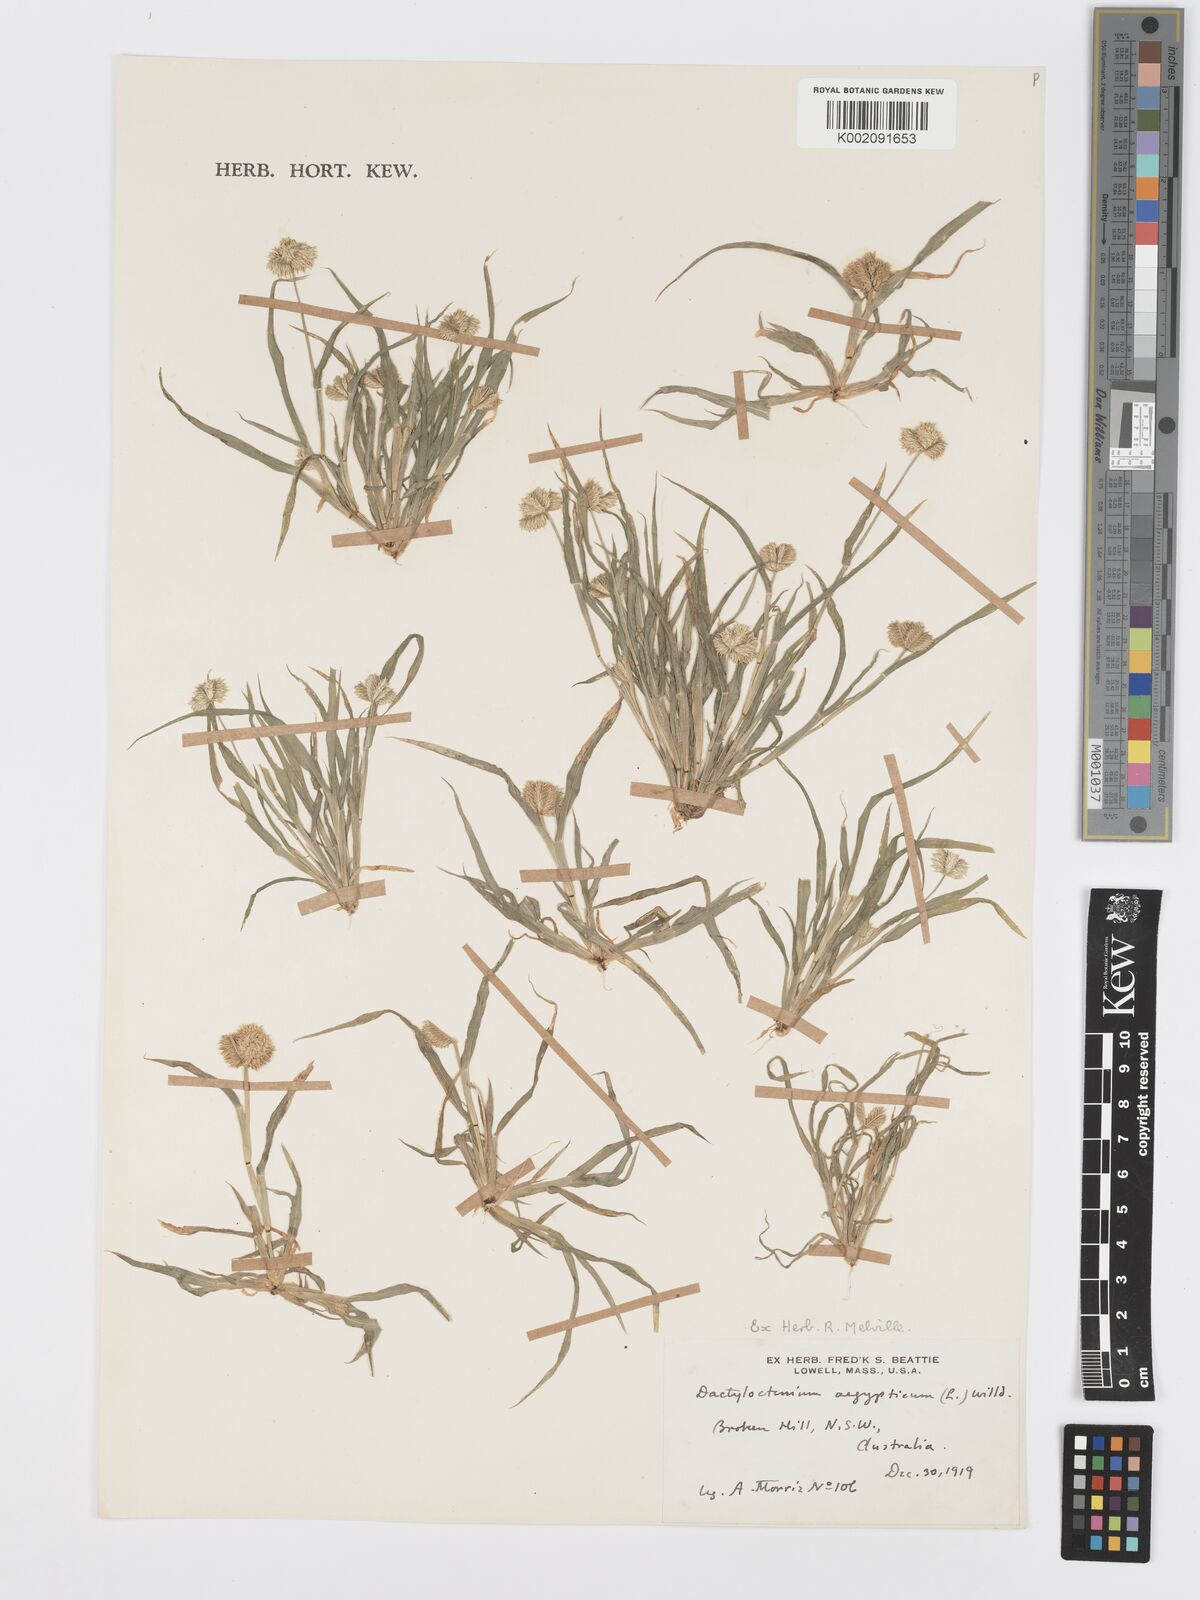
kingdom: Plantae
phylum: Tracheophyta
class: Liliopsida
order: Poales
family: Poaceae
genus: Dactyloctenium
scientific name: Dactyloctenium radulans
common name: Button-grass
